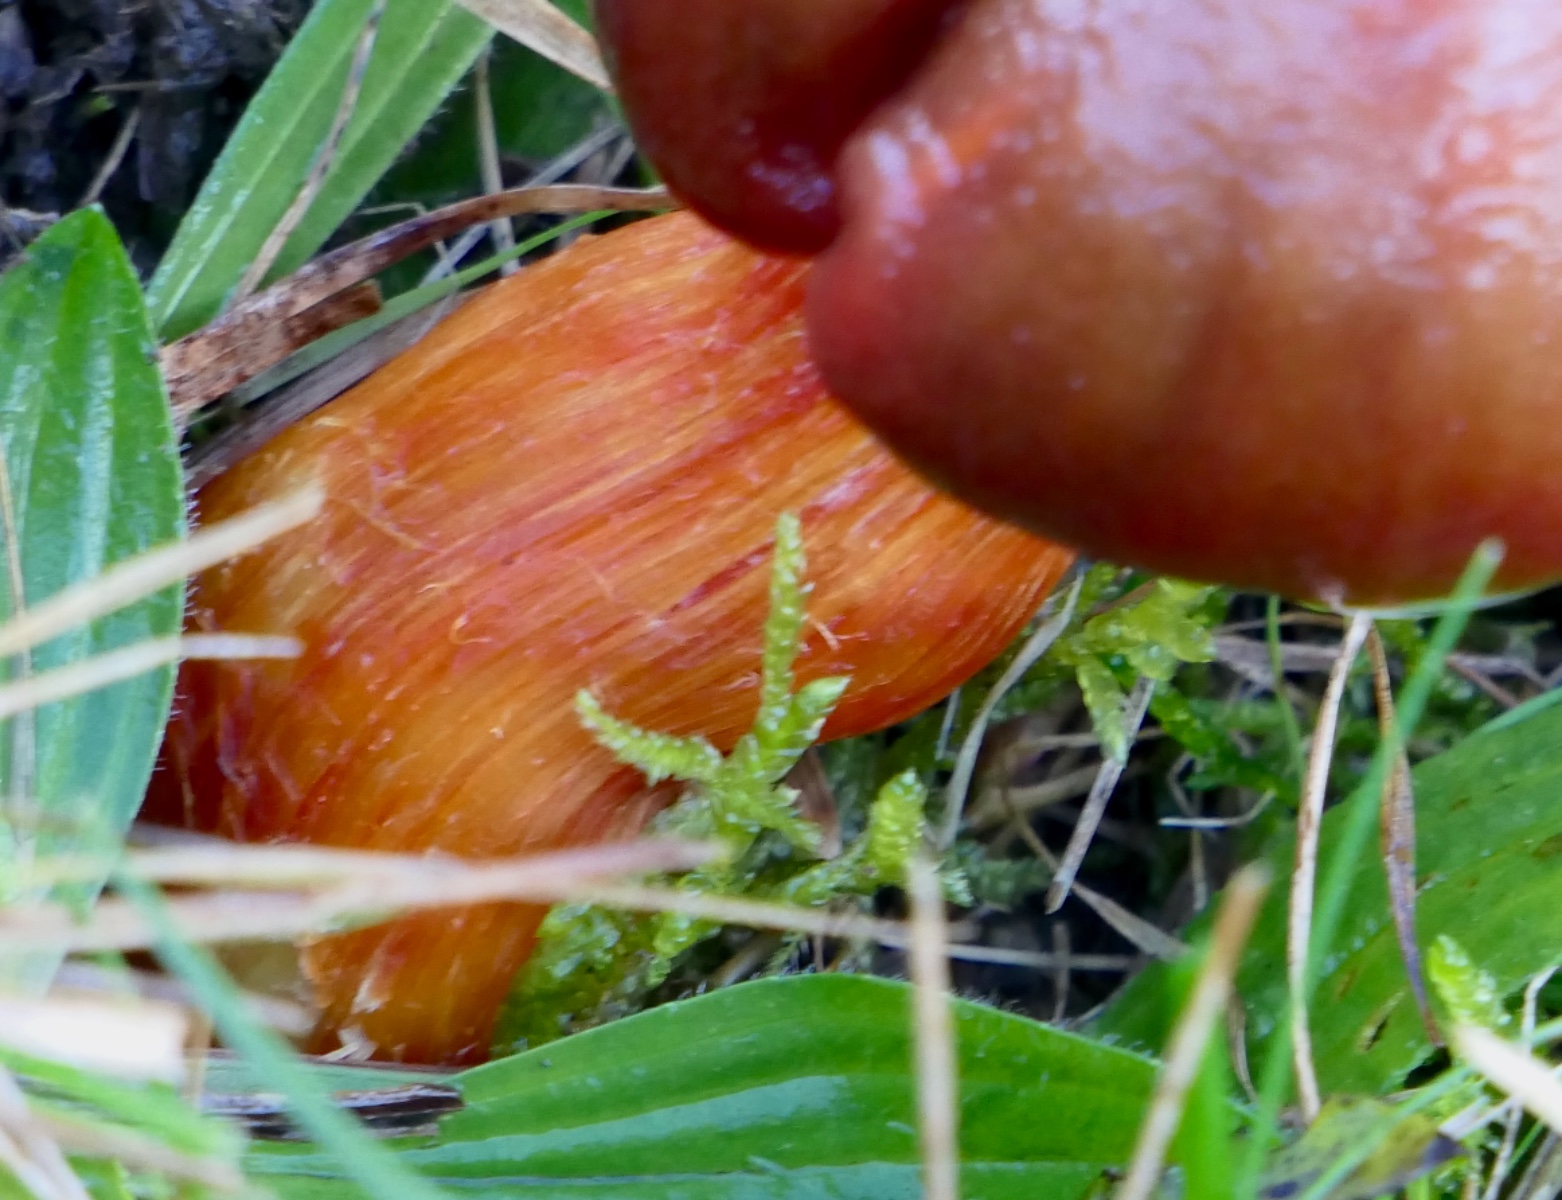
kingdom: Fungi
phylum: Basidiomycota
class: Agaricomycetes
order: Agaricales
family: Hygrophoraceae
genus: Hygrocybe
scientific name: Hygrocybe punicea
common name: skarlagen-vokshat
